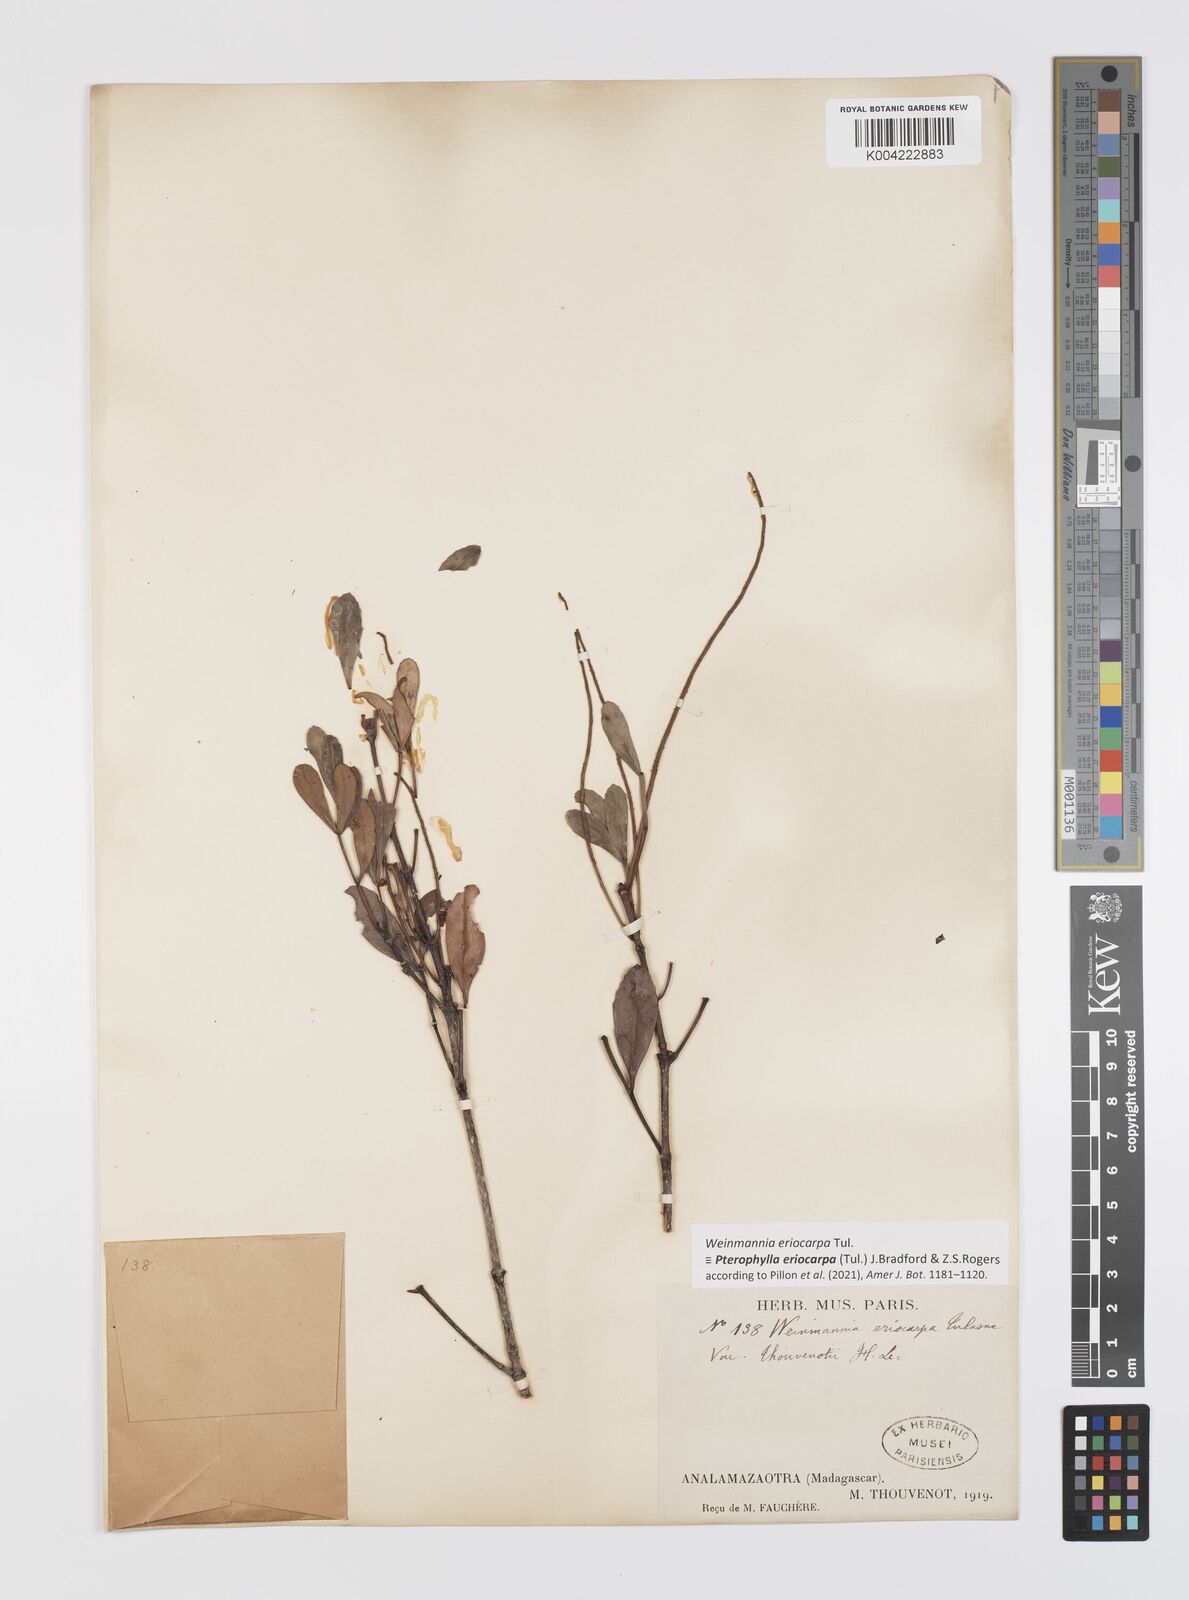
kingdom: Plantae
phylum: Tracheophyta
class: Magnoliopsida
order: Oxalidales
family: Cunoniaceae
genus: Pterophylla
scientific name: Pterophylla eriocarpa
